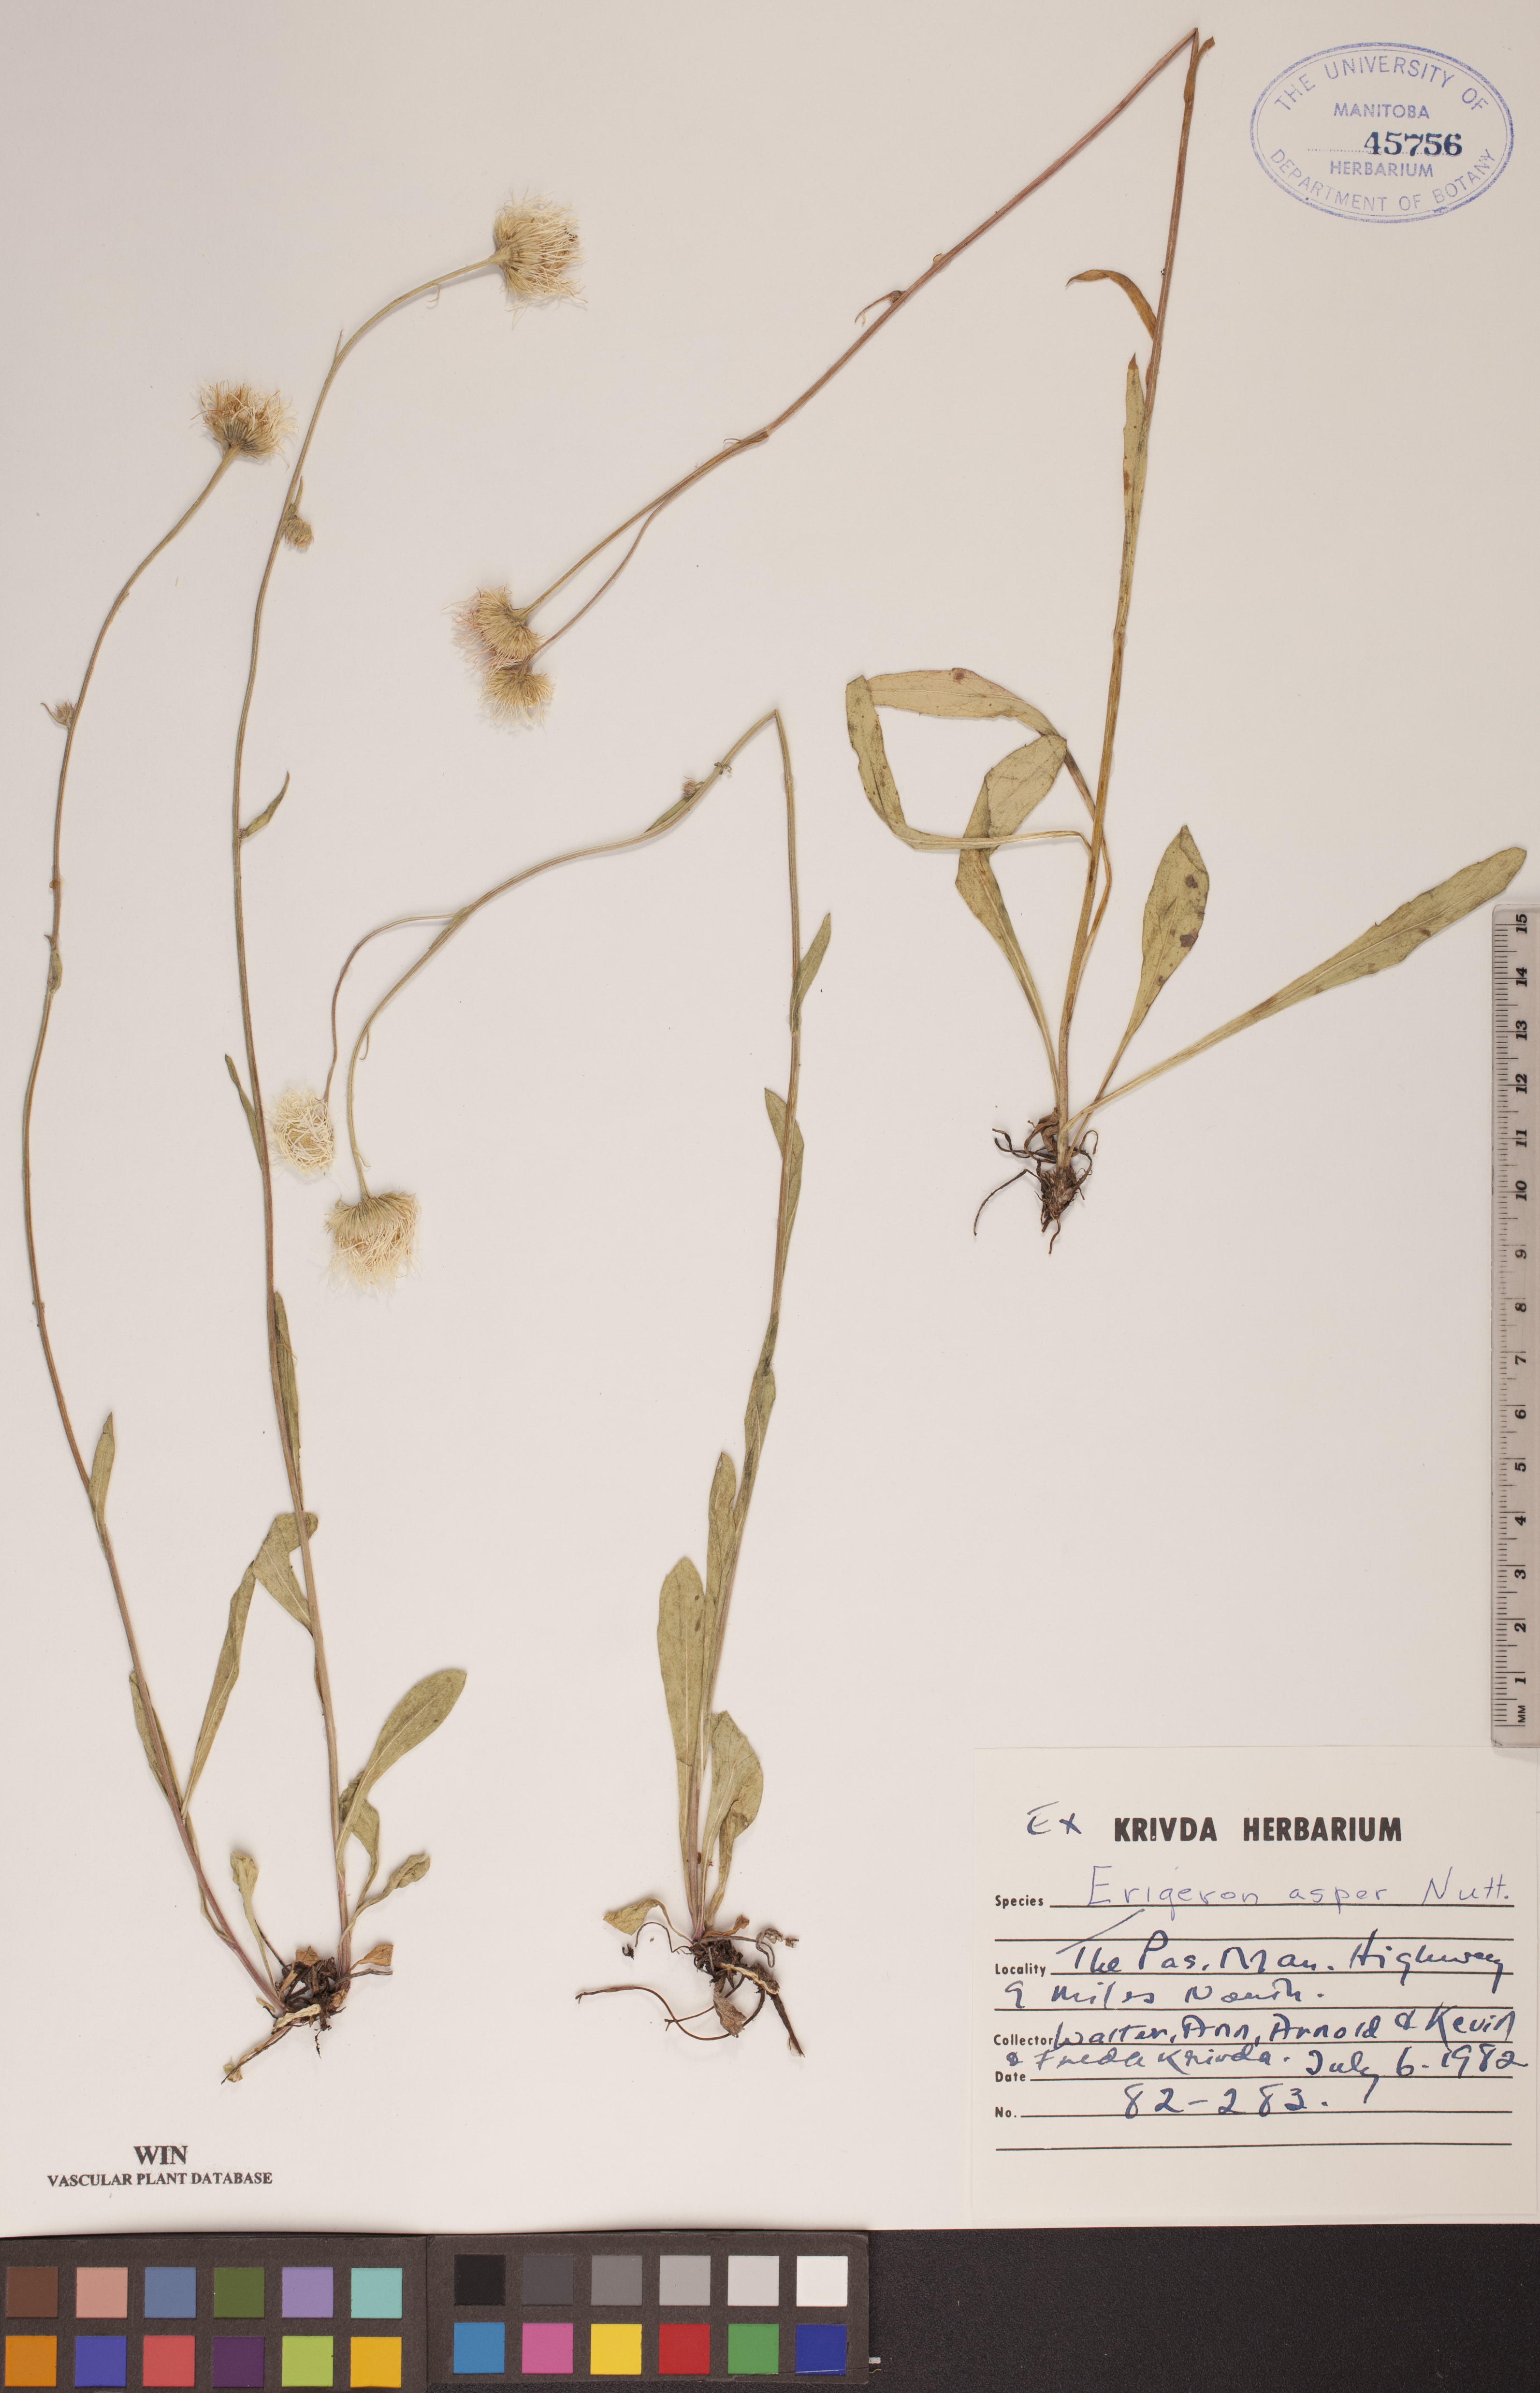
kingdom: Plantae
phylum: Tracheophyta
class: Magnoliopsida
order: Asterales
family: Asteraceae
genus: Erigeron
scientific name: Erigeron glabellus
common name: Smooth fleabane
